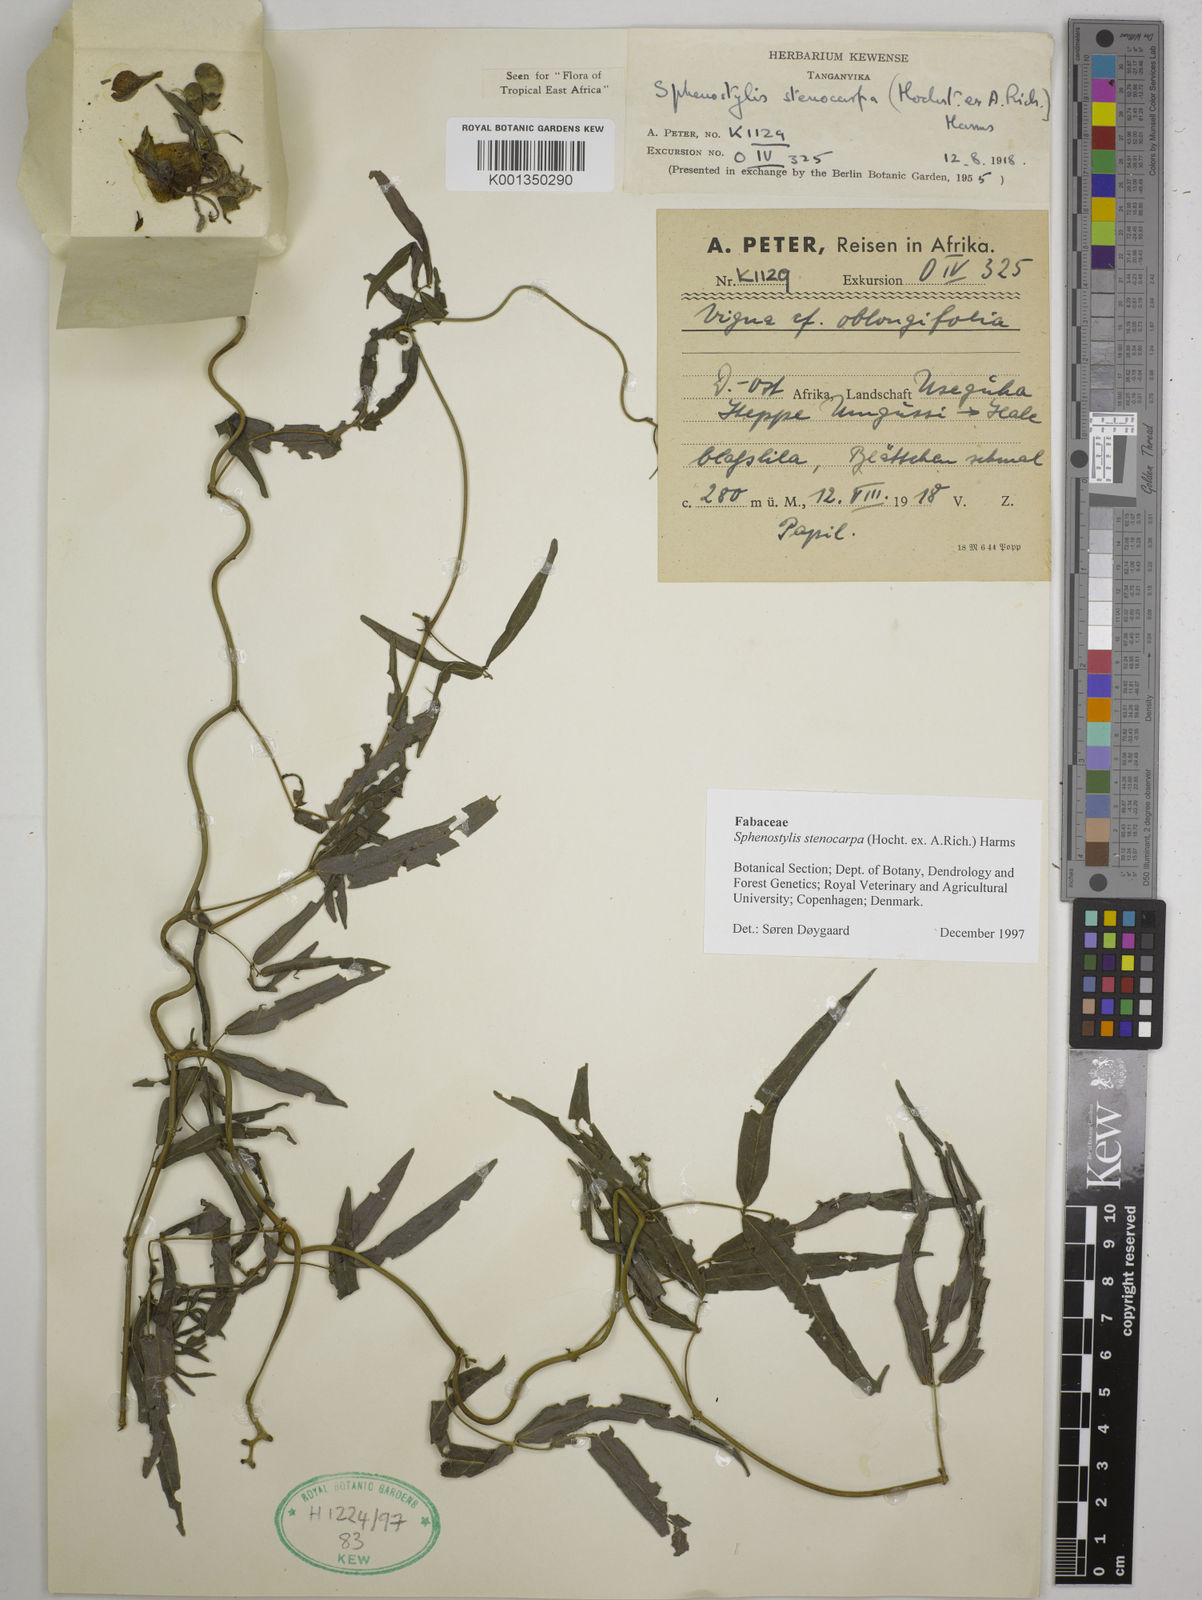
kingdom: Plantae
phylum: Tracheophyta
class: Magnoliopsida
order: Fabales
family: Fabaceae
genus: Sphenostylis
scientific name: Sphenostylis stenocarpa
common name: Yam-pea
